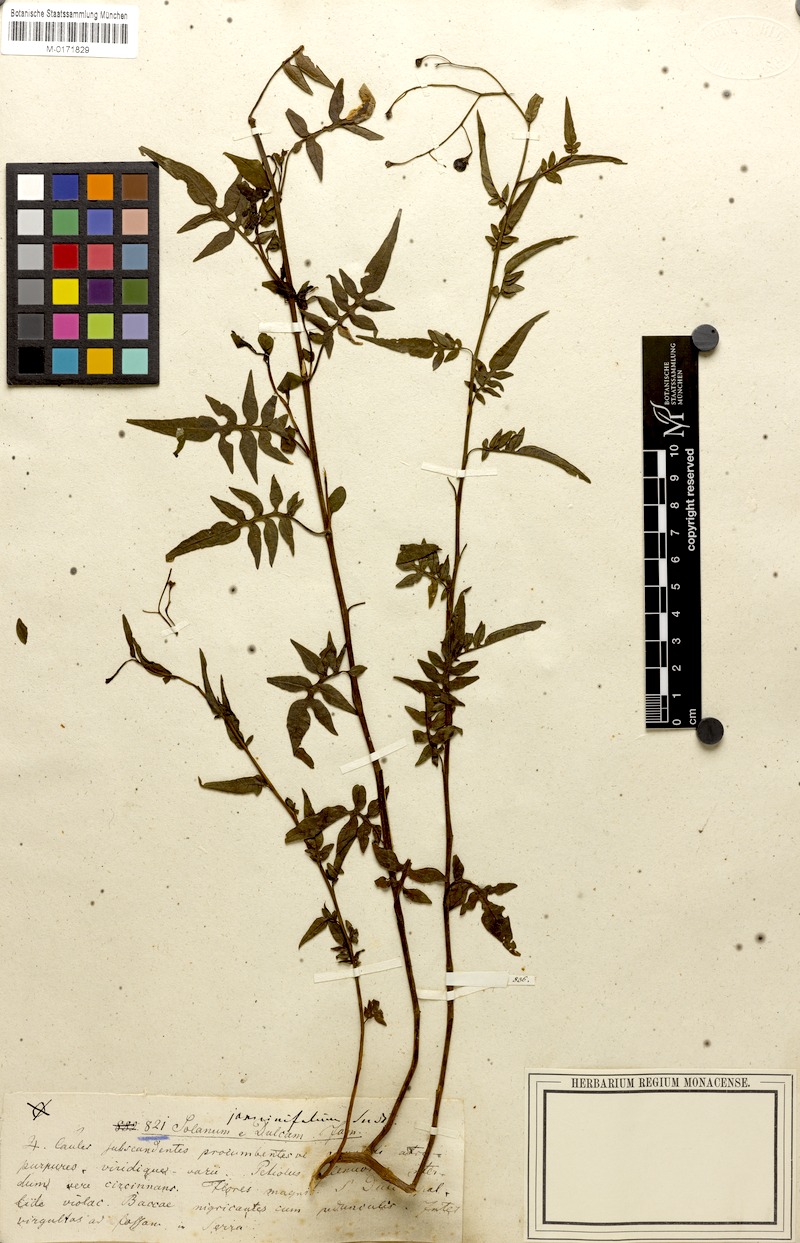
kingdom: Plantae
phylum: Tracheophyta
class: Magnoliopsida
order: Solanales
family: Solanaceae
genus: Solanum
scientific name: Solanum angustifidum
